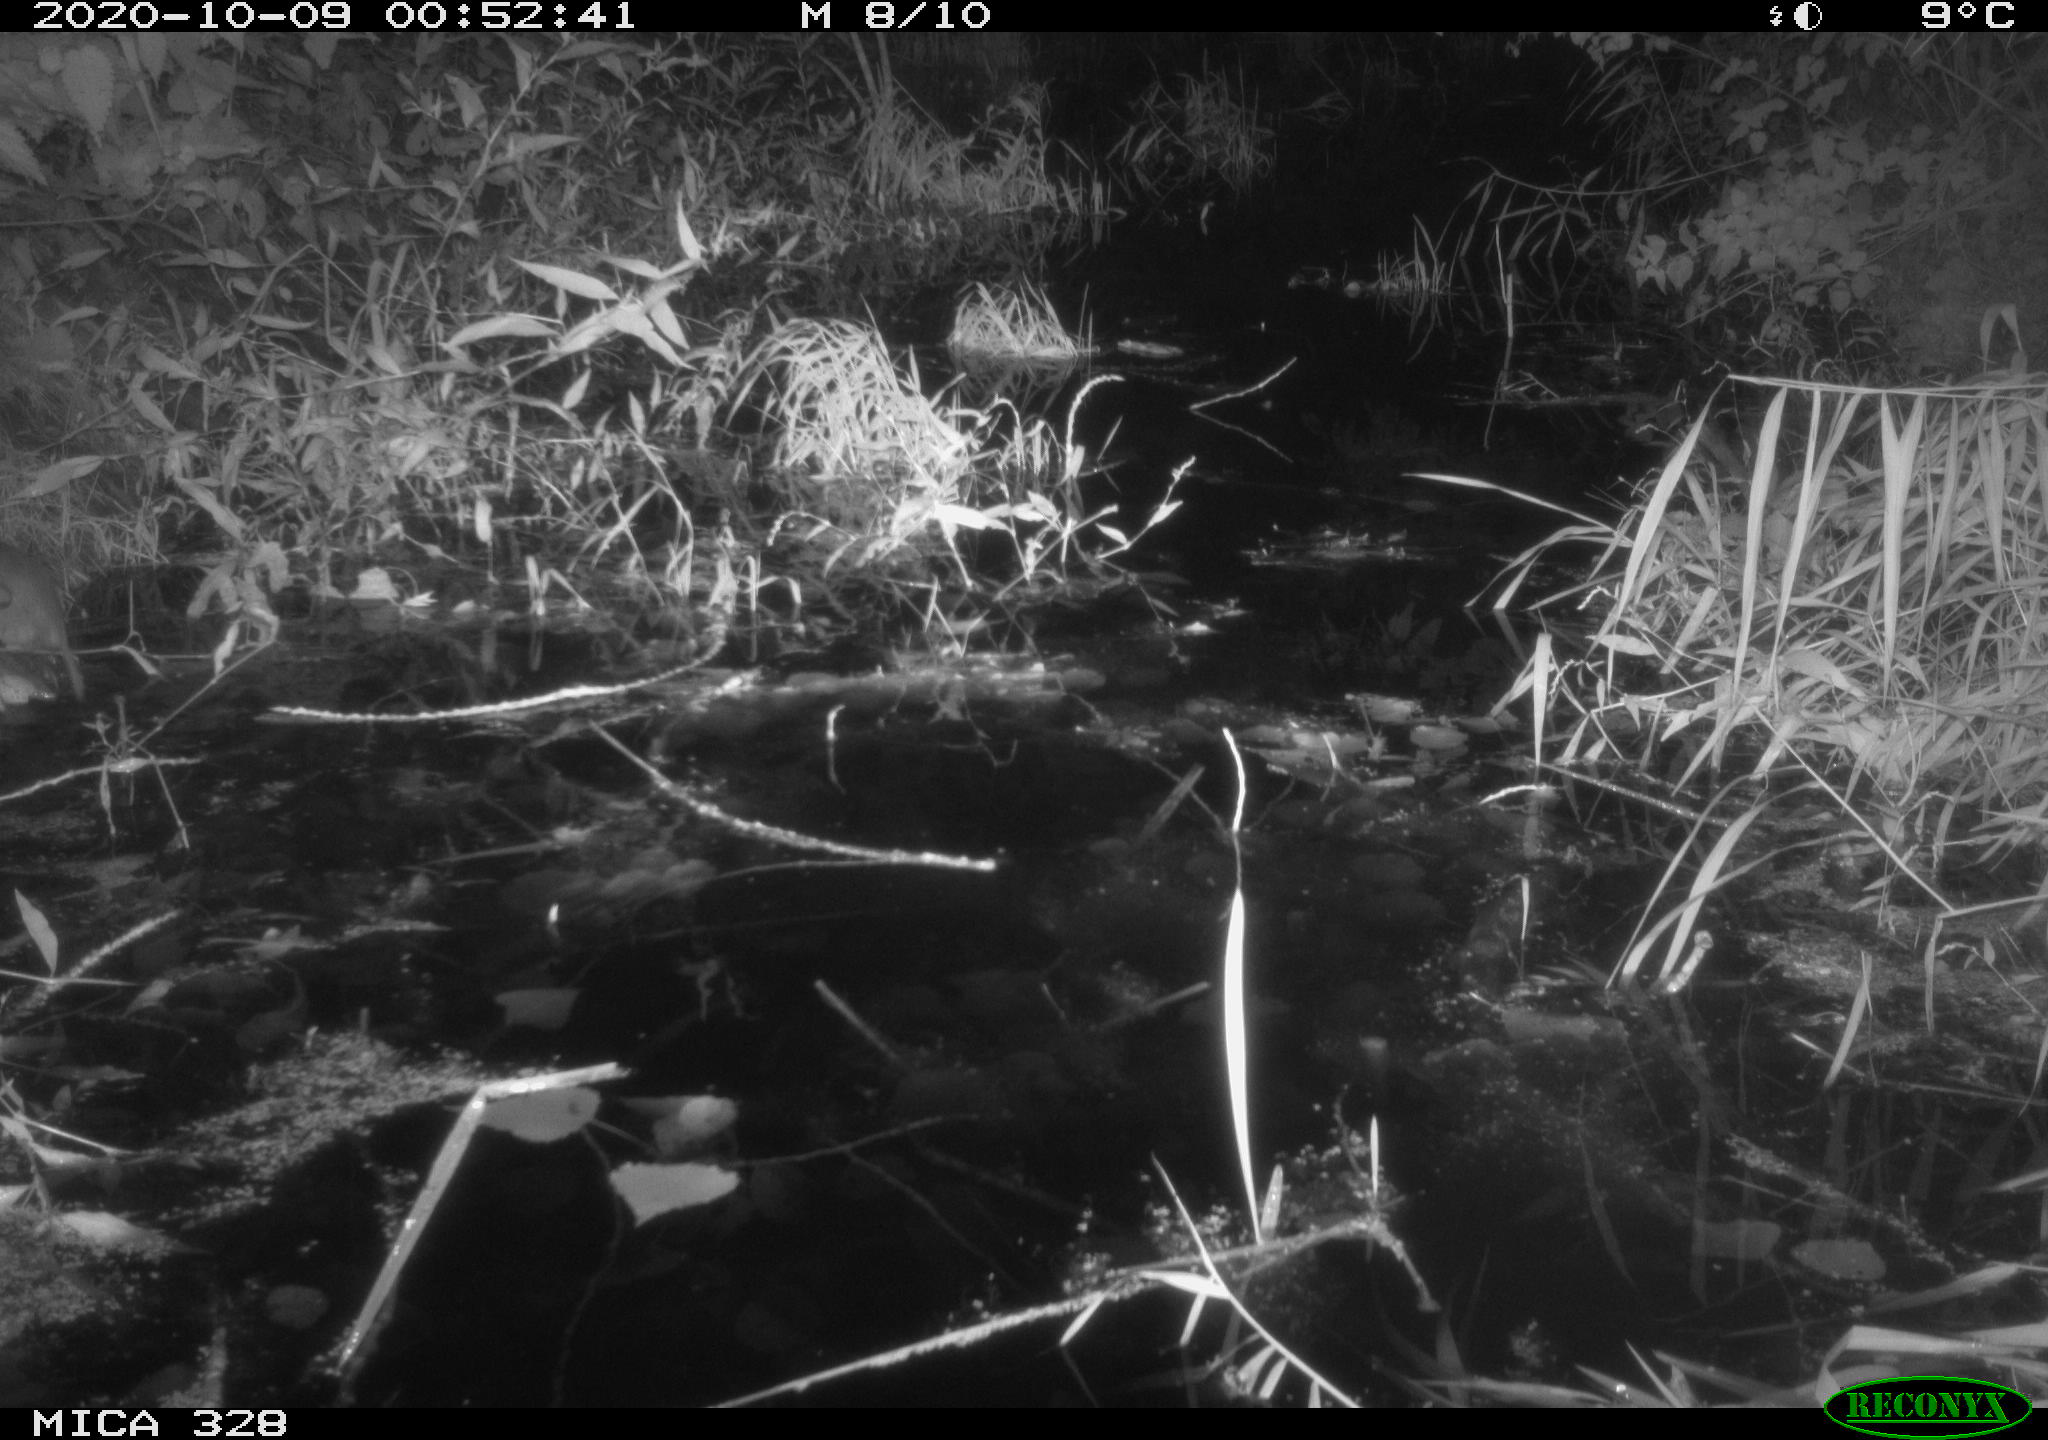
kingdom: Animalia
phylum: Chordata
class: Mammalia
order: Rodentia
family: Muridae
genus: Rattus
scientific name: Rattus norvegicus
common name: Brown rat
